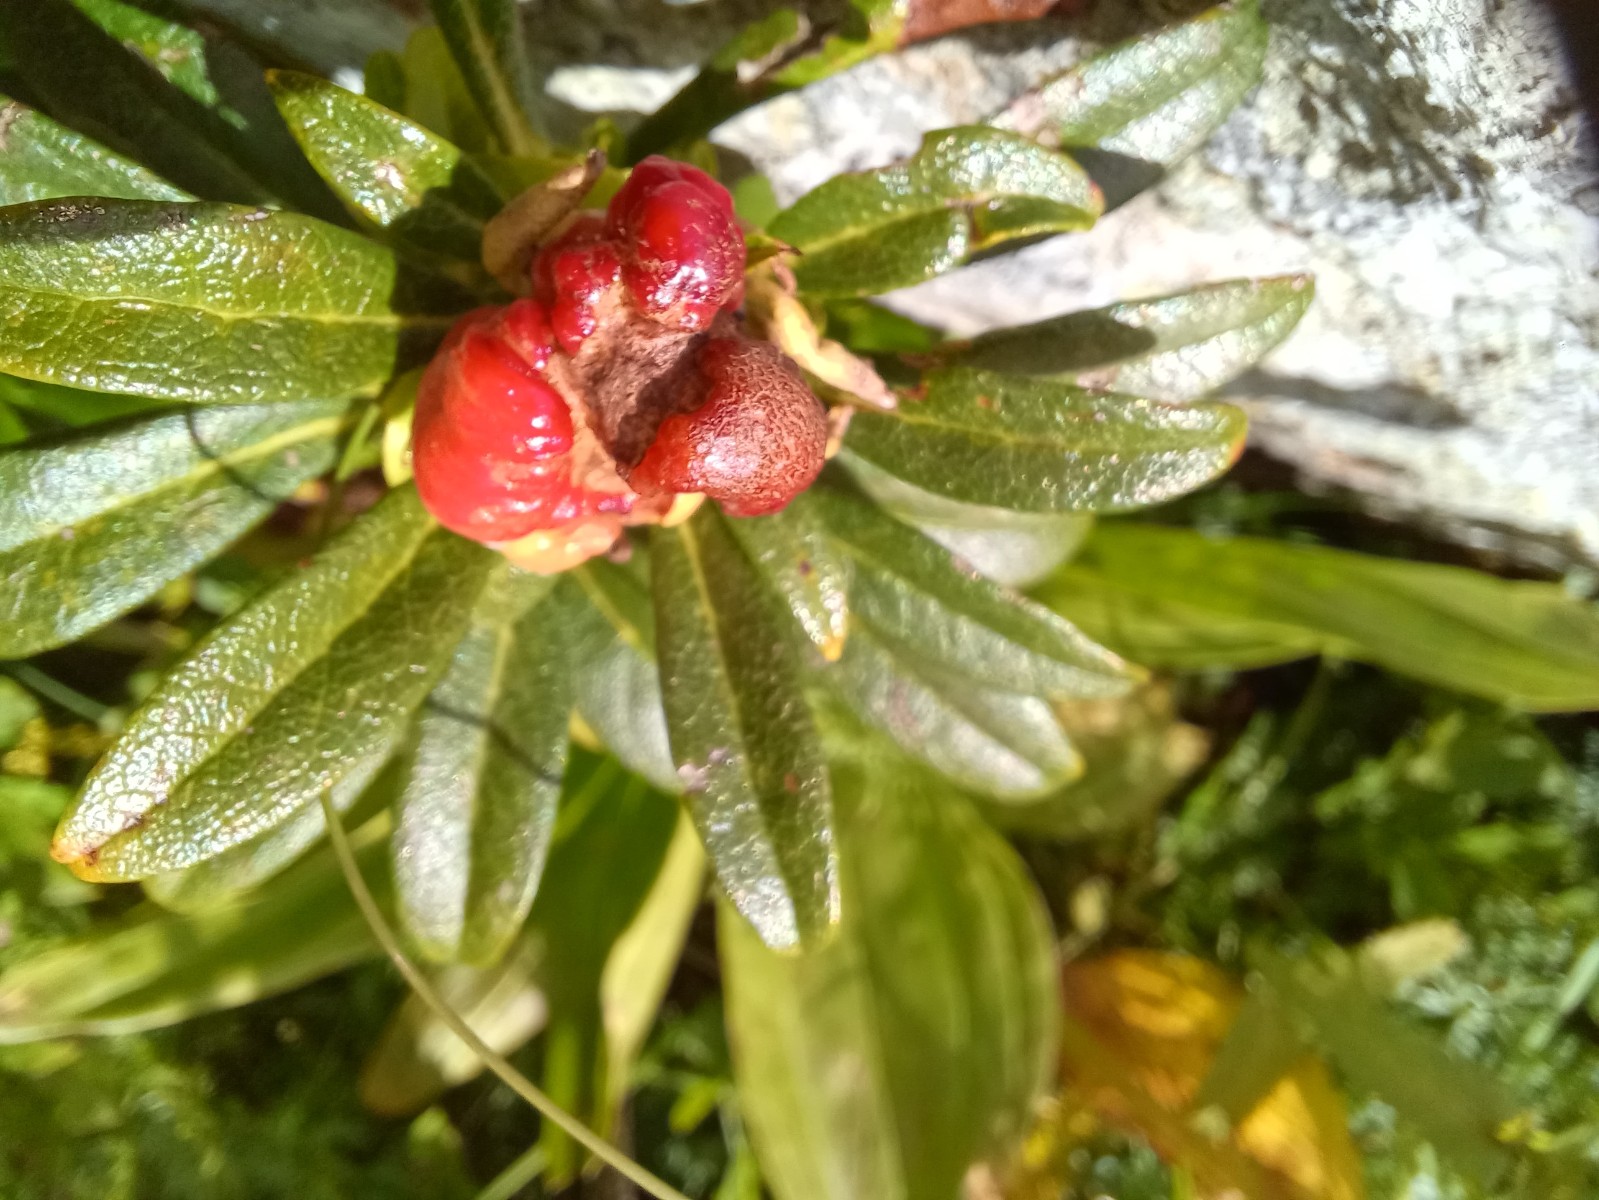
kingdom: Fungi
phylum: Basidiomycota
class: Exobasidiomycetes
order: Exobasidiales
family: Exobasidiaceae
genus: Exobasidium
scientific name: Exobasidium rhododendri
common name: rhododendron-bøllesvamp
